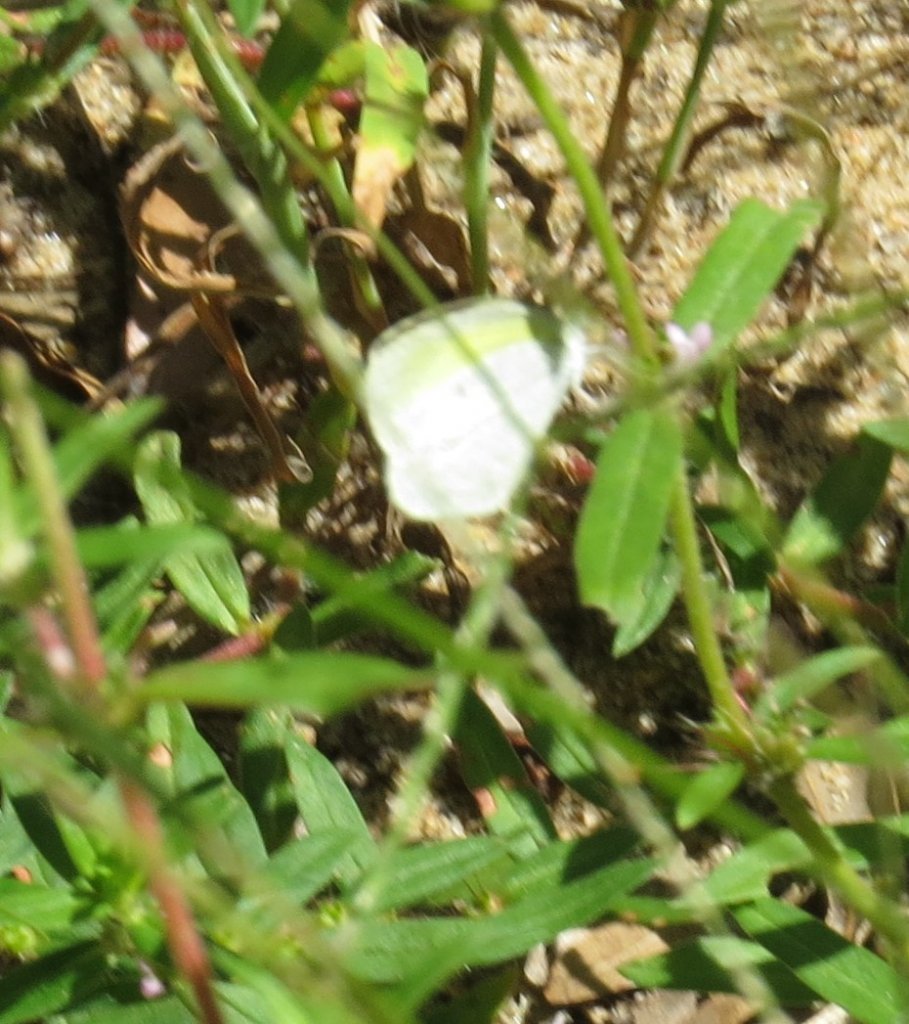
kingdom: Animalia
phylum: Arthropoda
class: Insecta
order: Lepidoptera
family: Pieridae
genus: Eurema
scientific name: Eurema daira
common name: Barred Yellow
